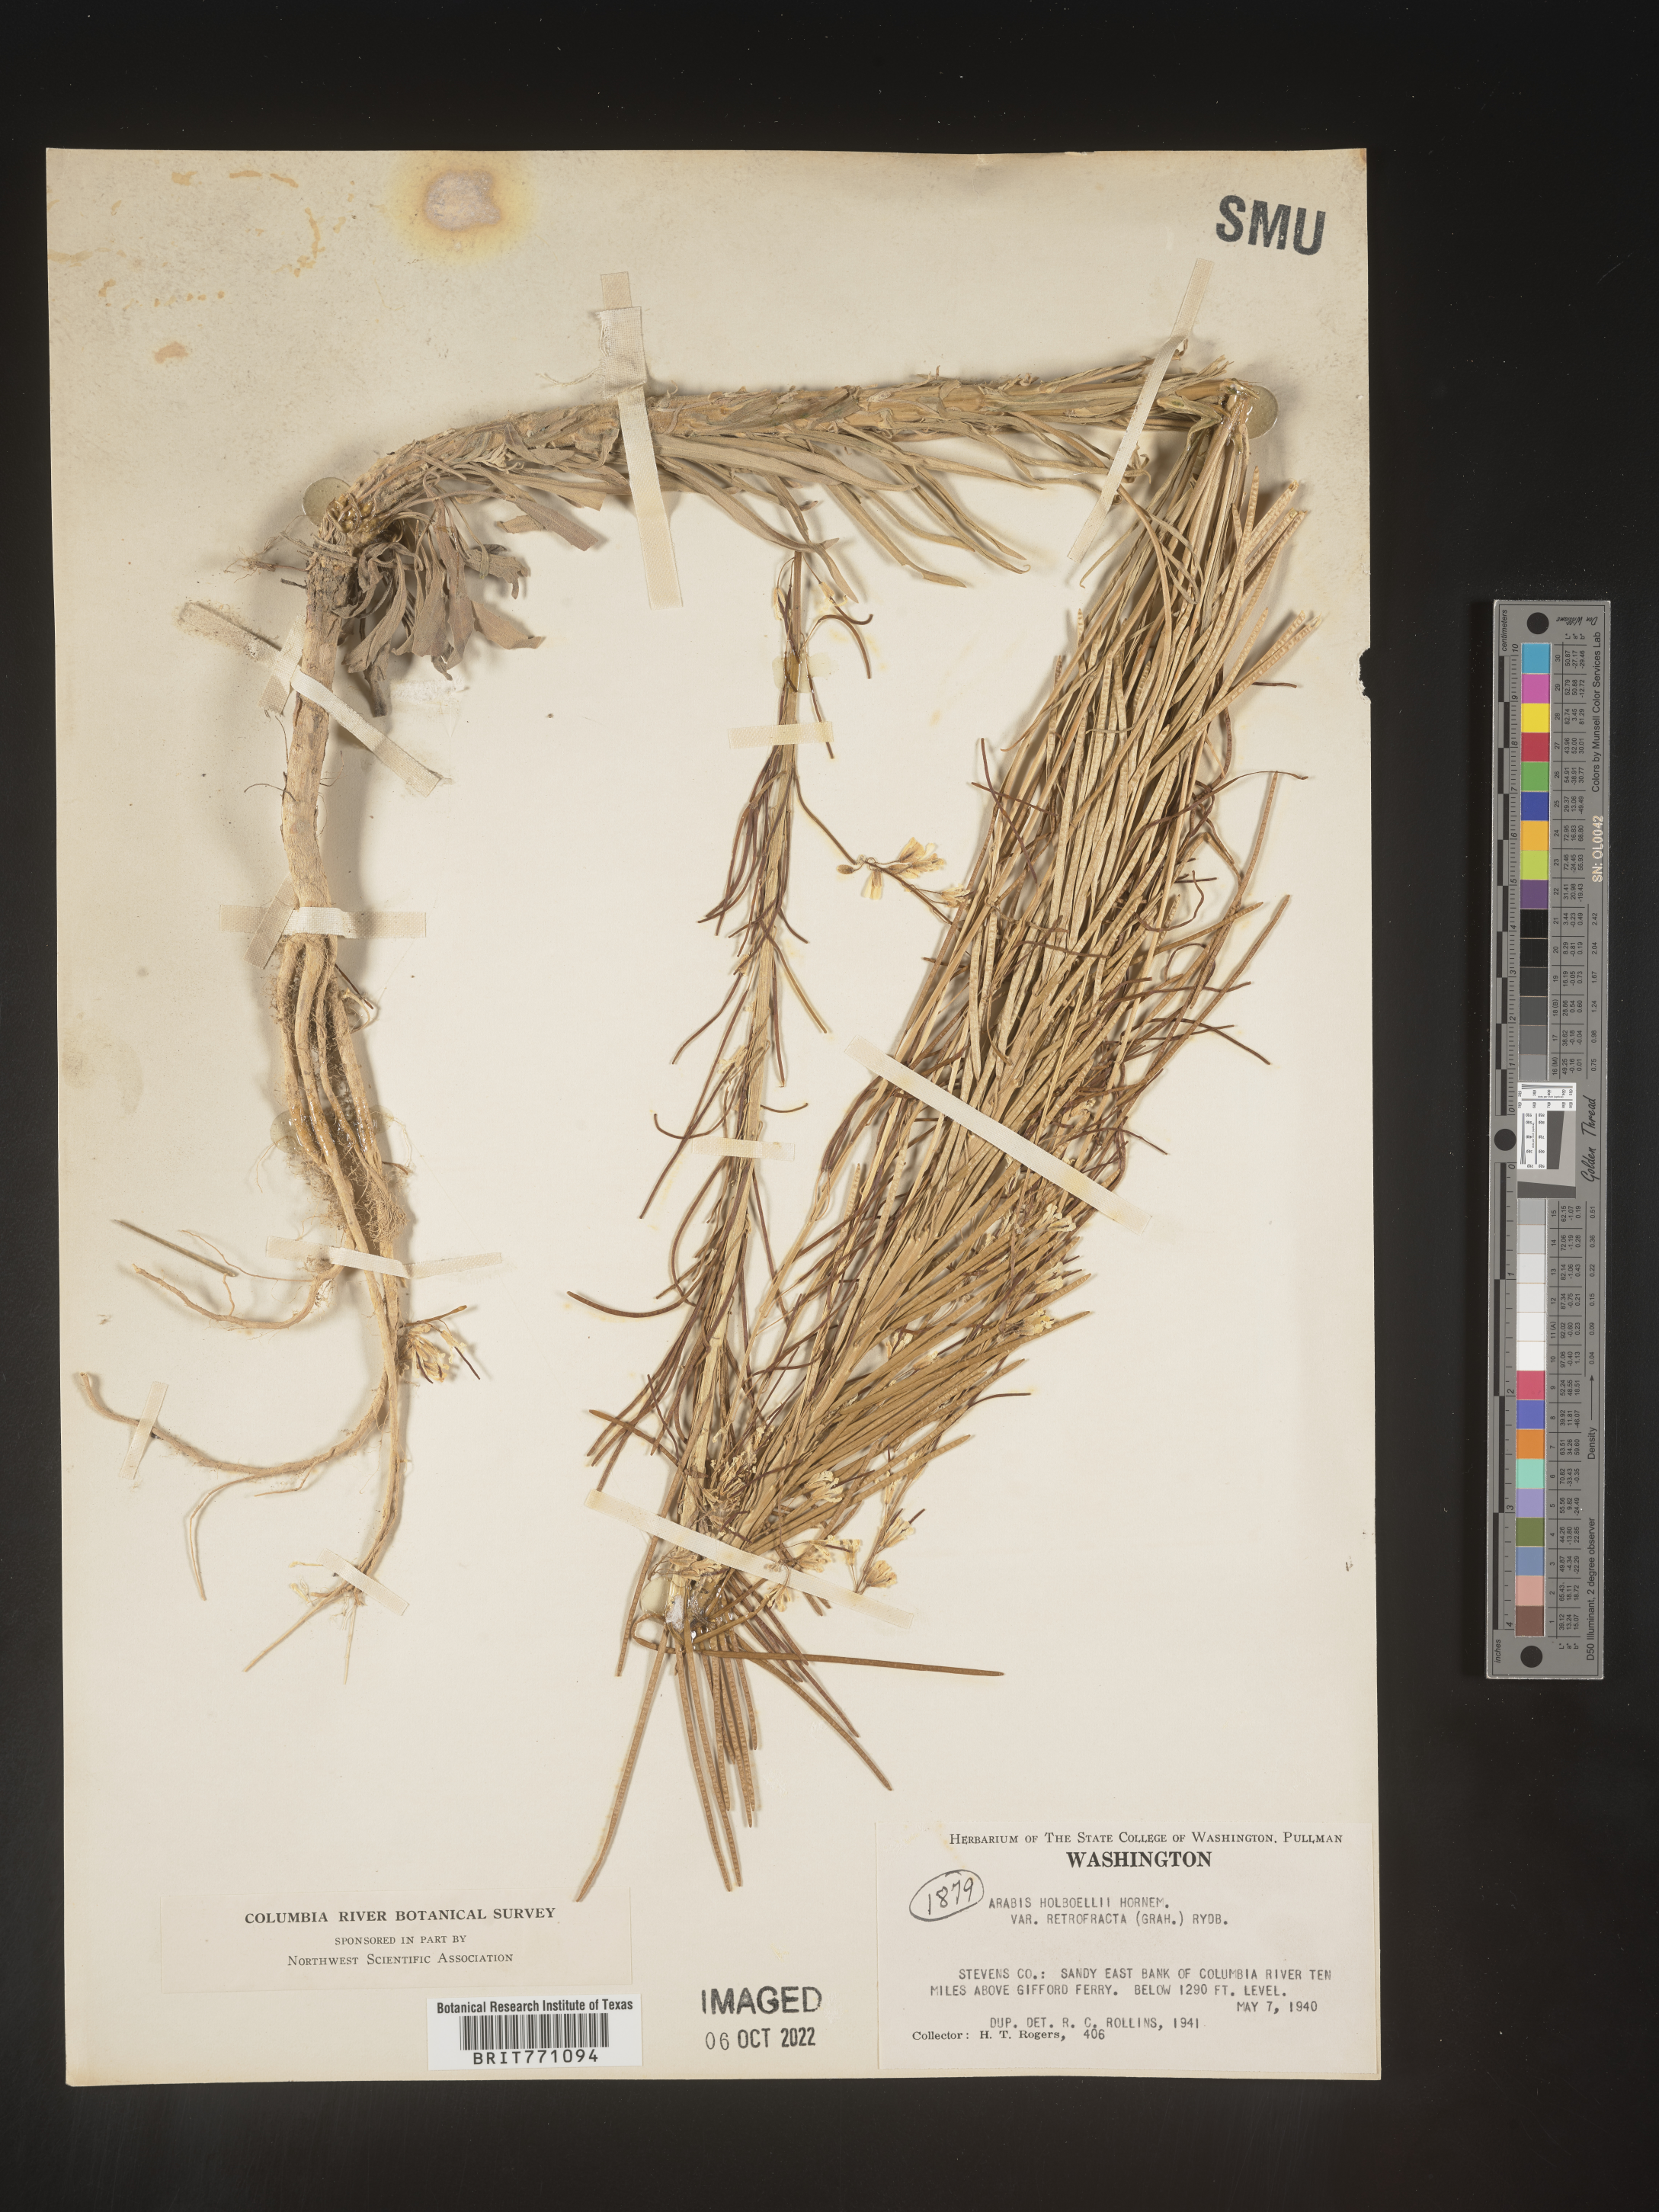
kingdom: Plantae
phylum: Tracheophyta
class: Magnoliopsida
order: Brassicales
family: Brassicaceae
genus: Boechera
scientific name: Boechera holboellii
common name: Holboell's rockcress
